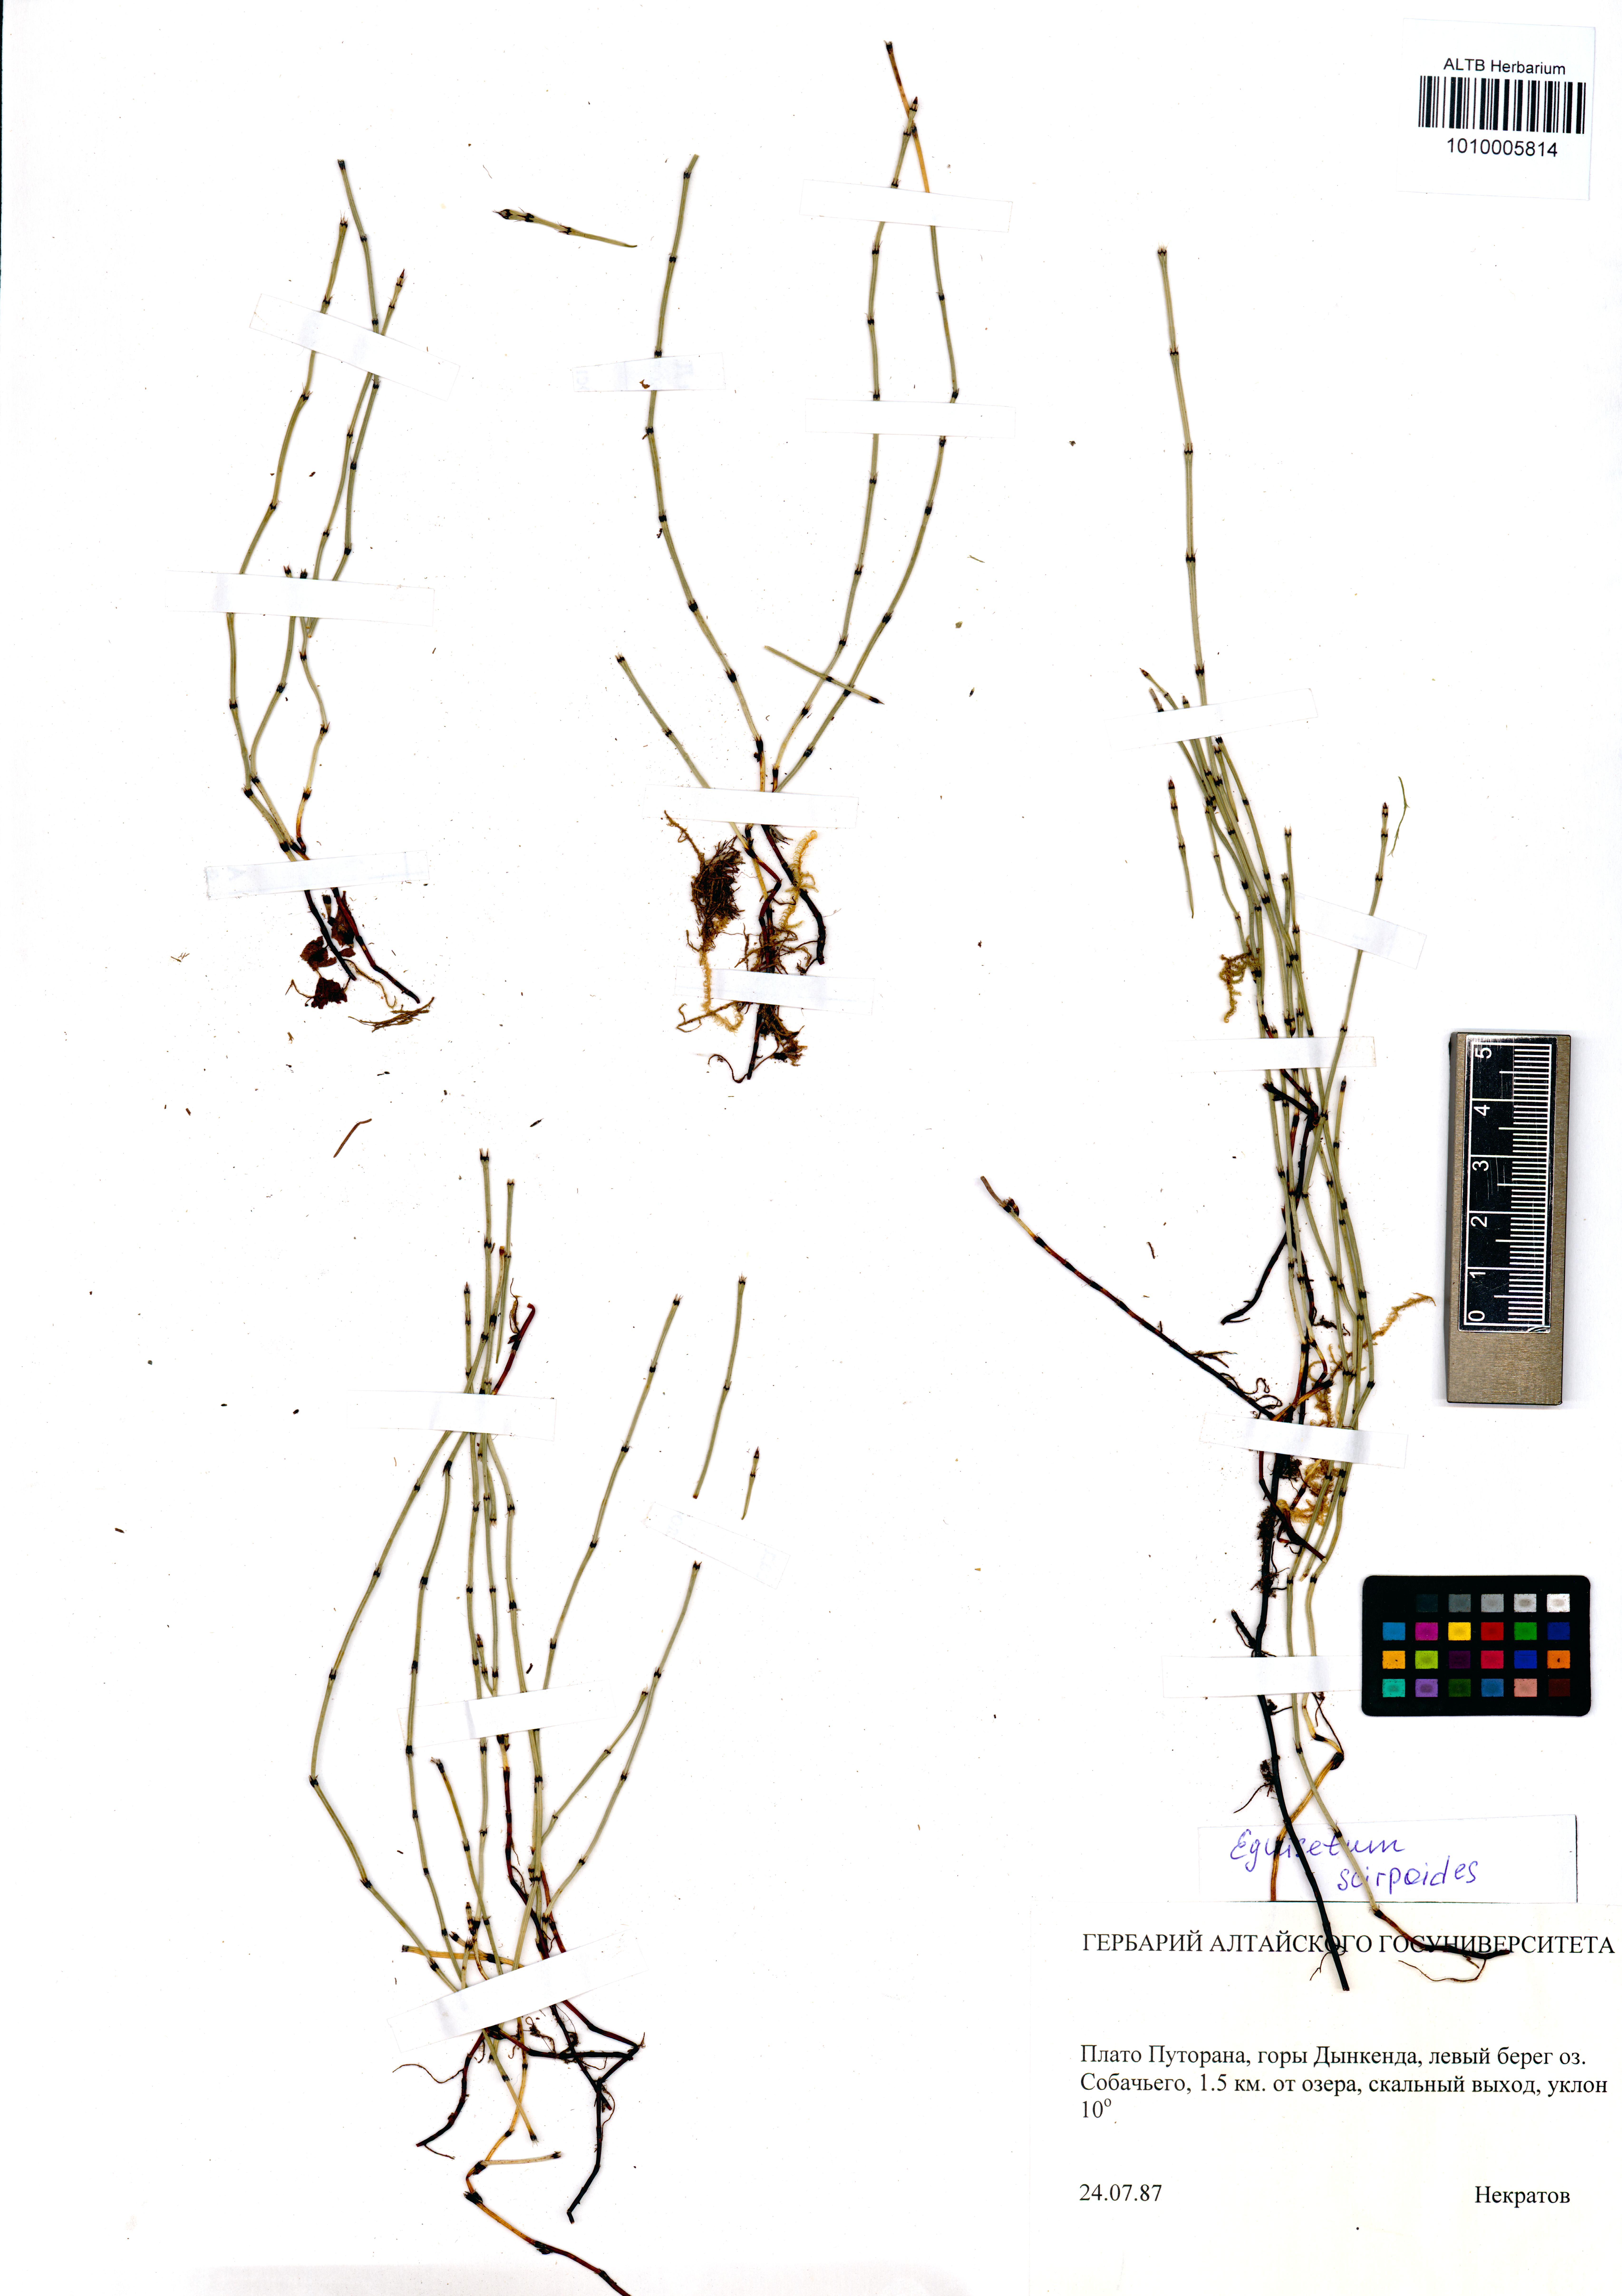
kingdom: Plantae
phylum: Tracheophyta
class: Polypodiopsida
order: Equisetales
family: Equisetaceae
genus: Equisetum
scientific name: Equisetum scirpoides
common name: Delicate horsetail
